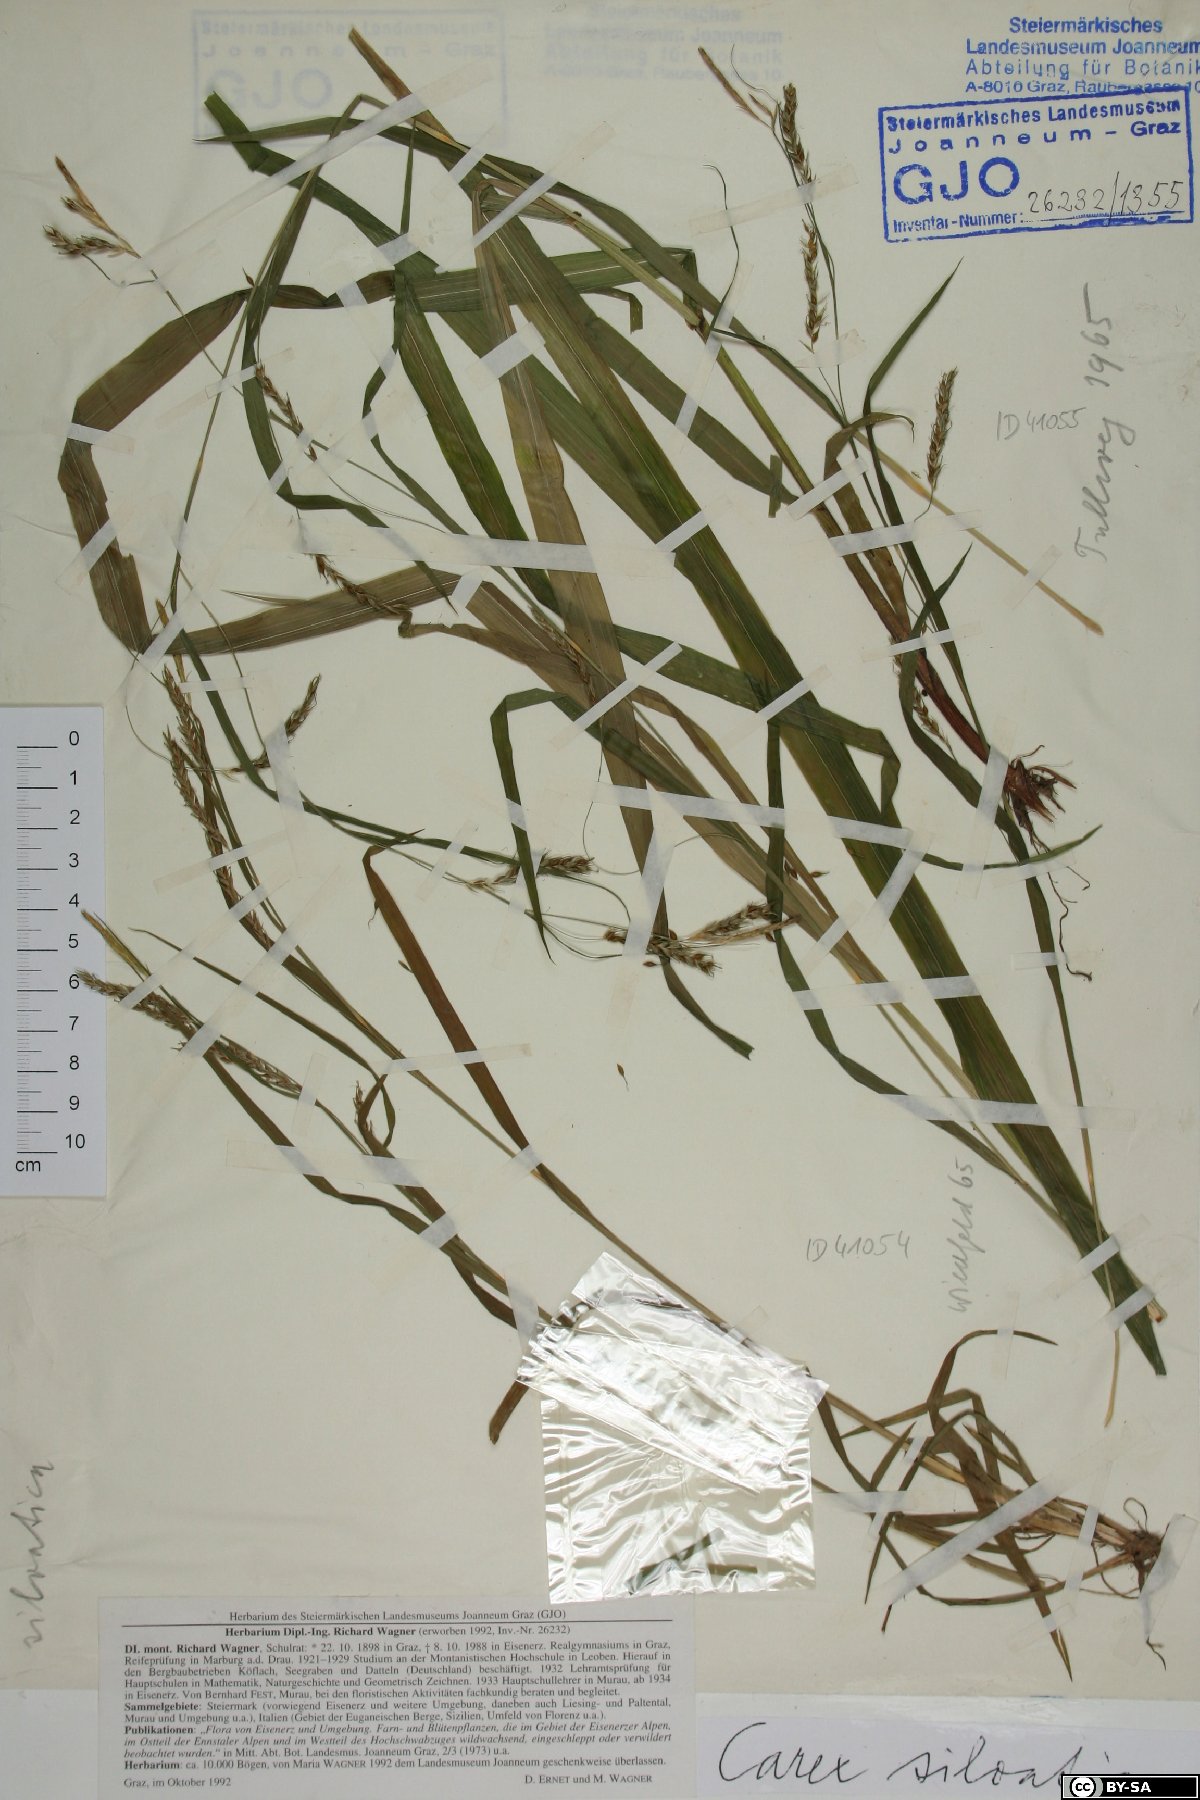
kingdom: Plantae
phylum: Tracheophyta
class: Liliopsida
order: Poales
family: Cyperaceae
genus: Carex
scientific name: Carex sylvatica
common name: Wood-sedge
